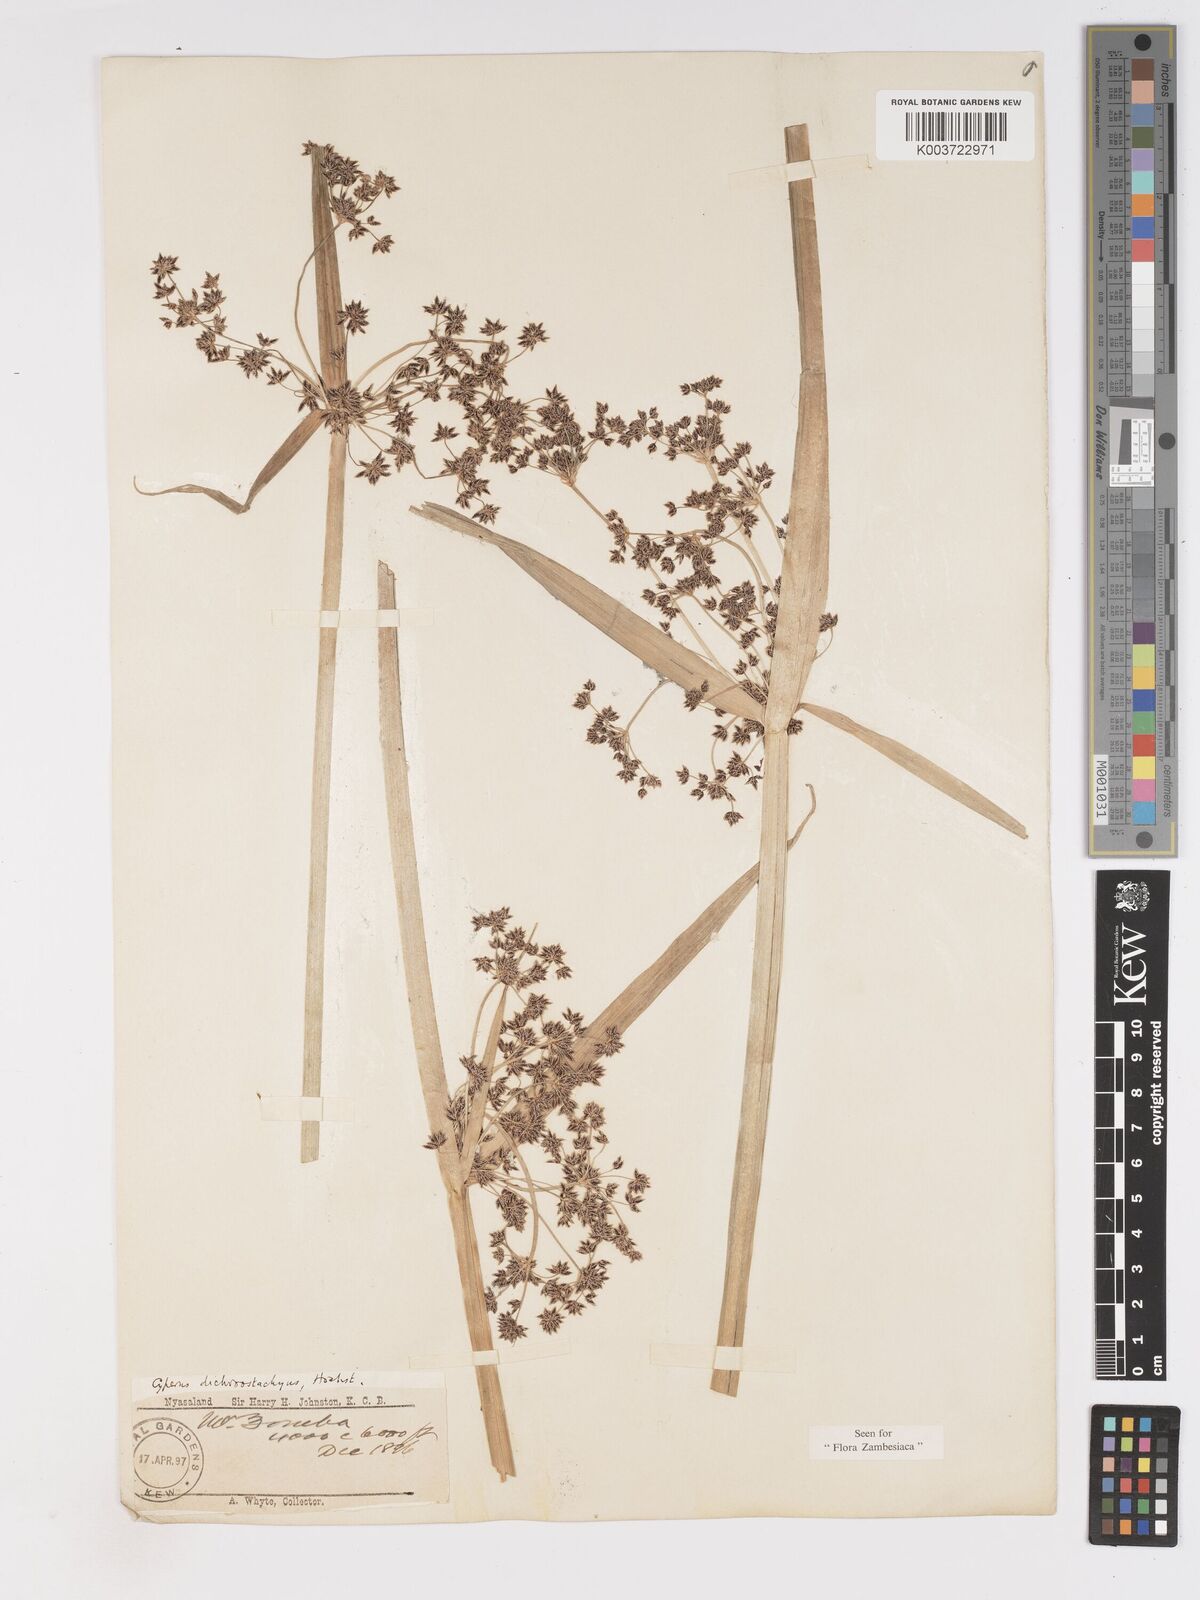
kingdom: Plantae
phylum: Tracheophyta
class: Liliopsida
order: Poales
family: Cyperaceae
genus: Cyperus
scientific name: Cyperus dichrostachyus
